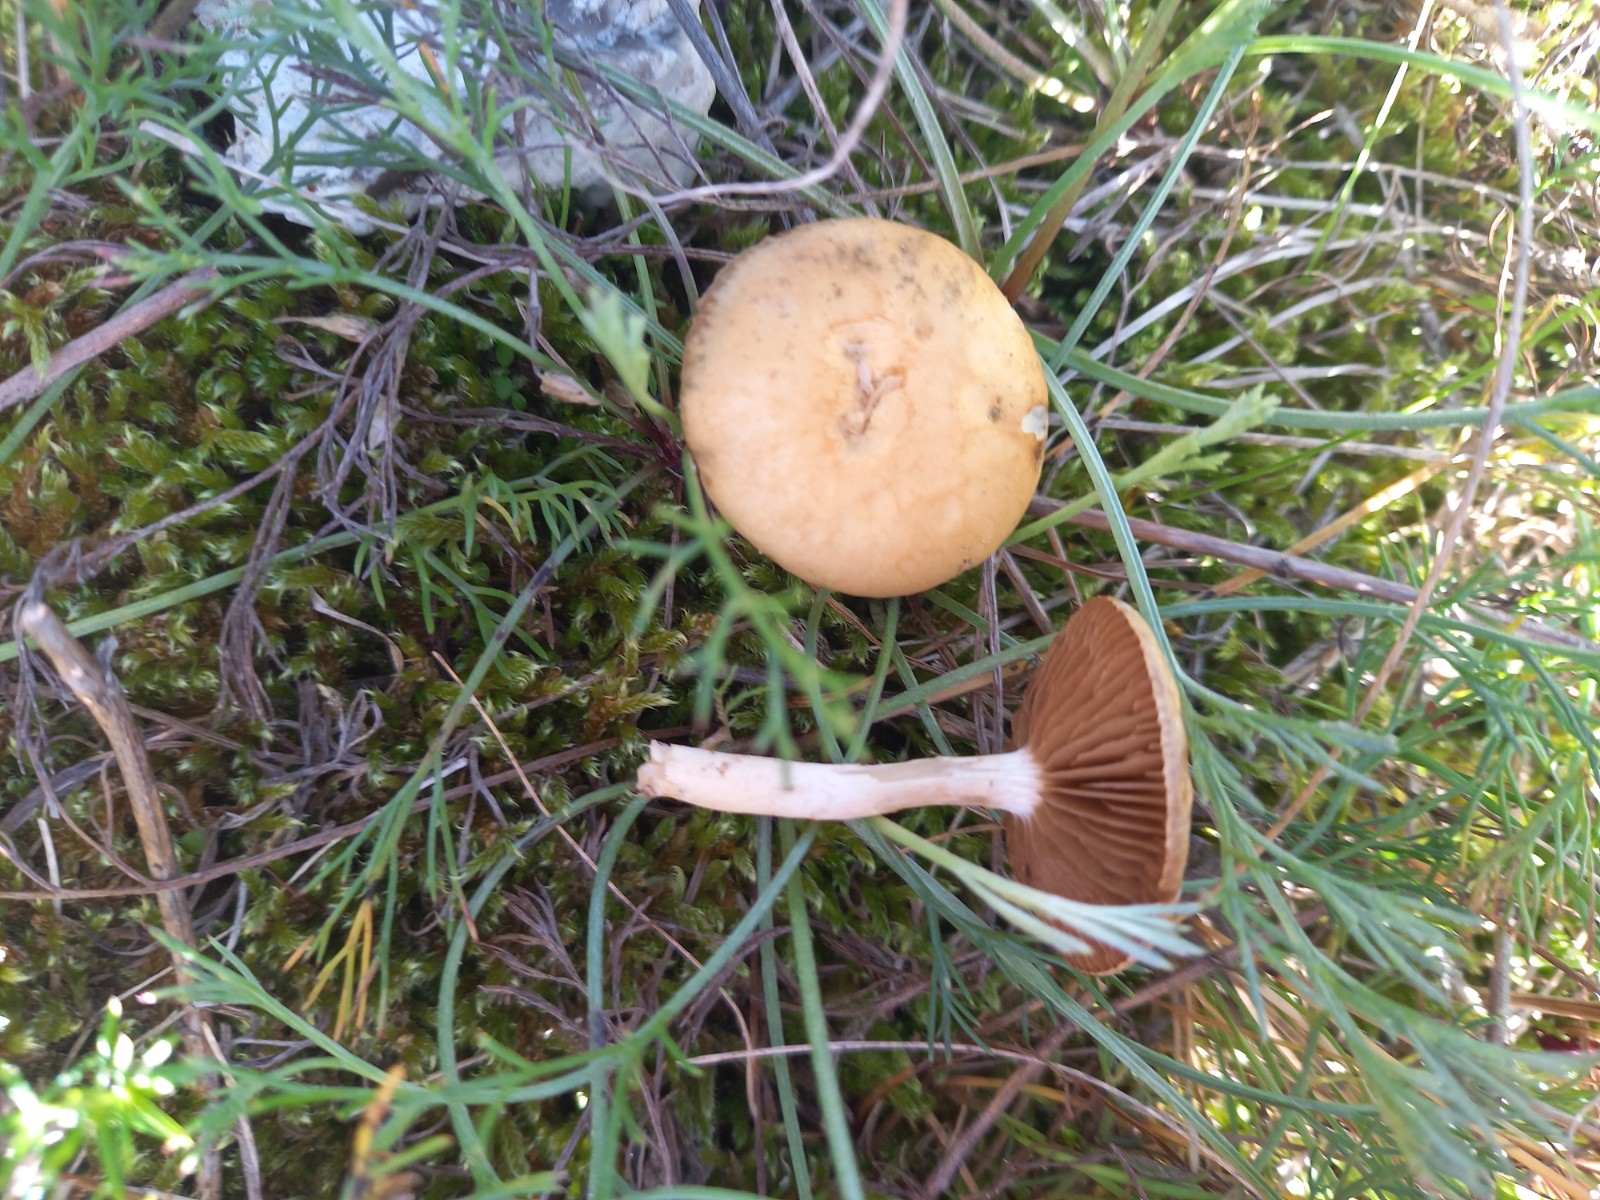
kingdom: Fungi
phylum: Basidiomycota
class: Agaricomycetes
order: Agaricales
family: Strophariaceae
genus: Agrocybe
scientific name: Agrocybe vervacti
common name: lav agerhat
